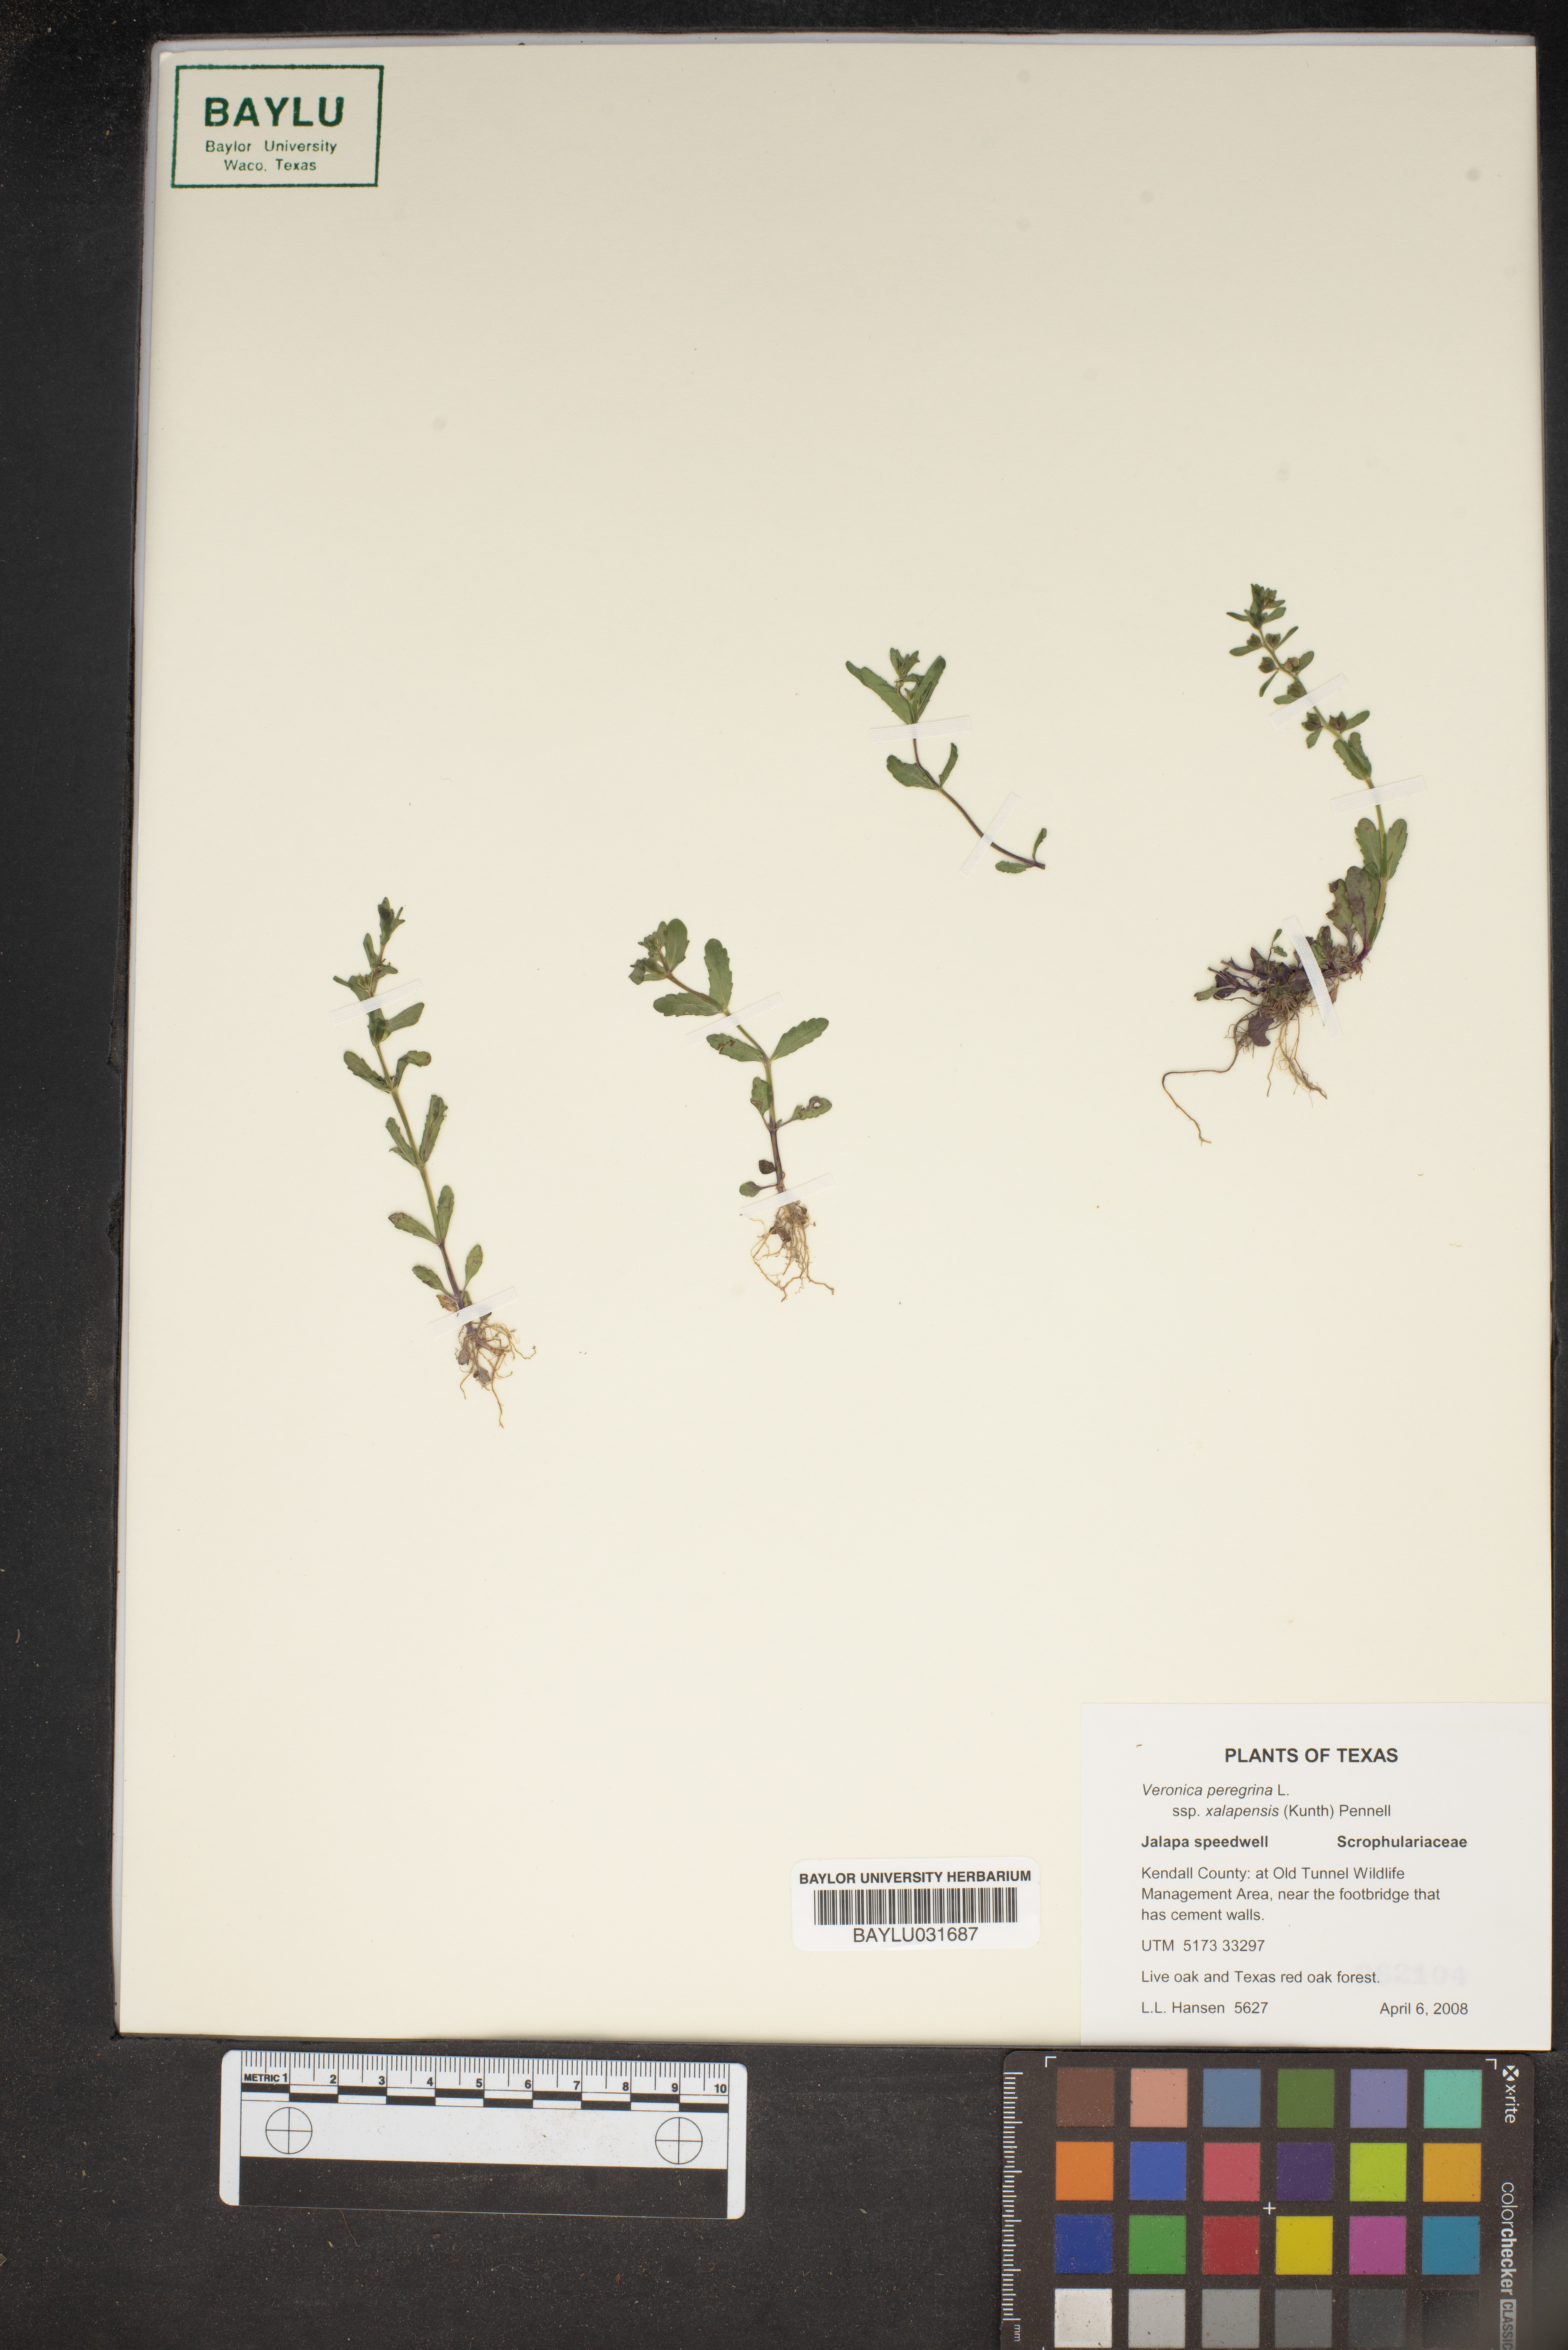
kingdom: Plantae
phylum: Tracheophyta
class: Magnoliopsida
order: Lamiales
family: Plantaginaceae
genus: Veronica
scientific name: Veronica peregrina
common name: Neckweed
